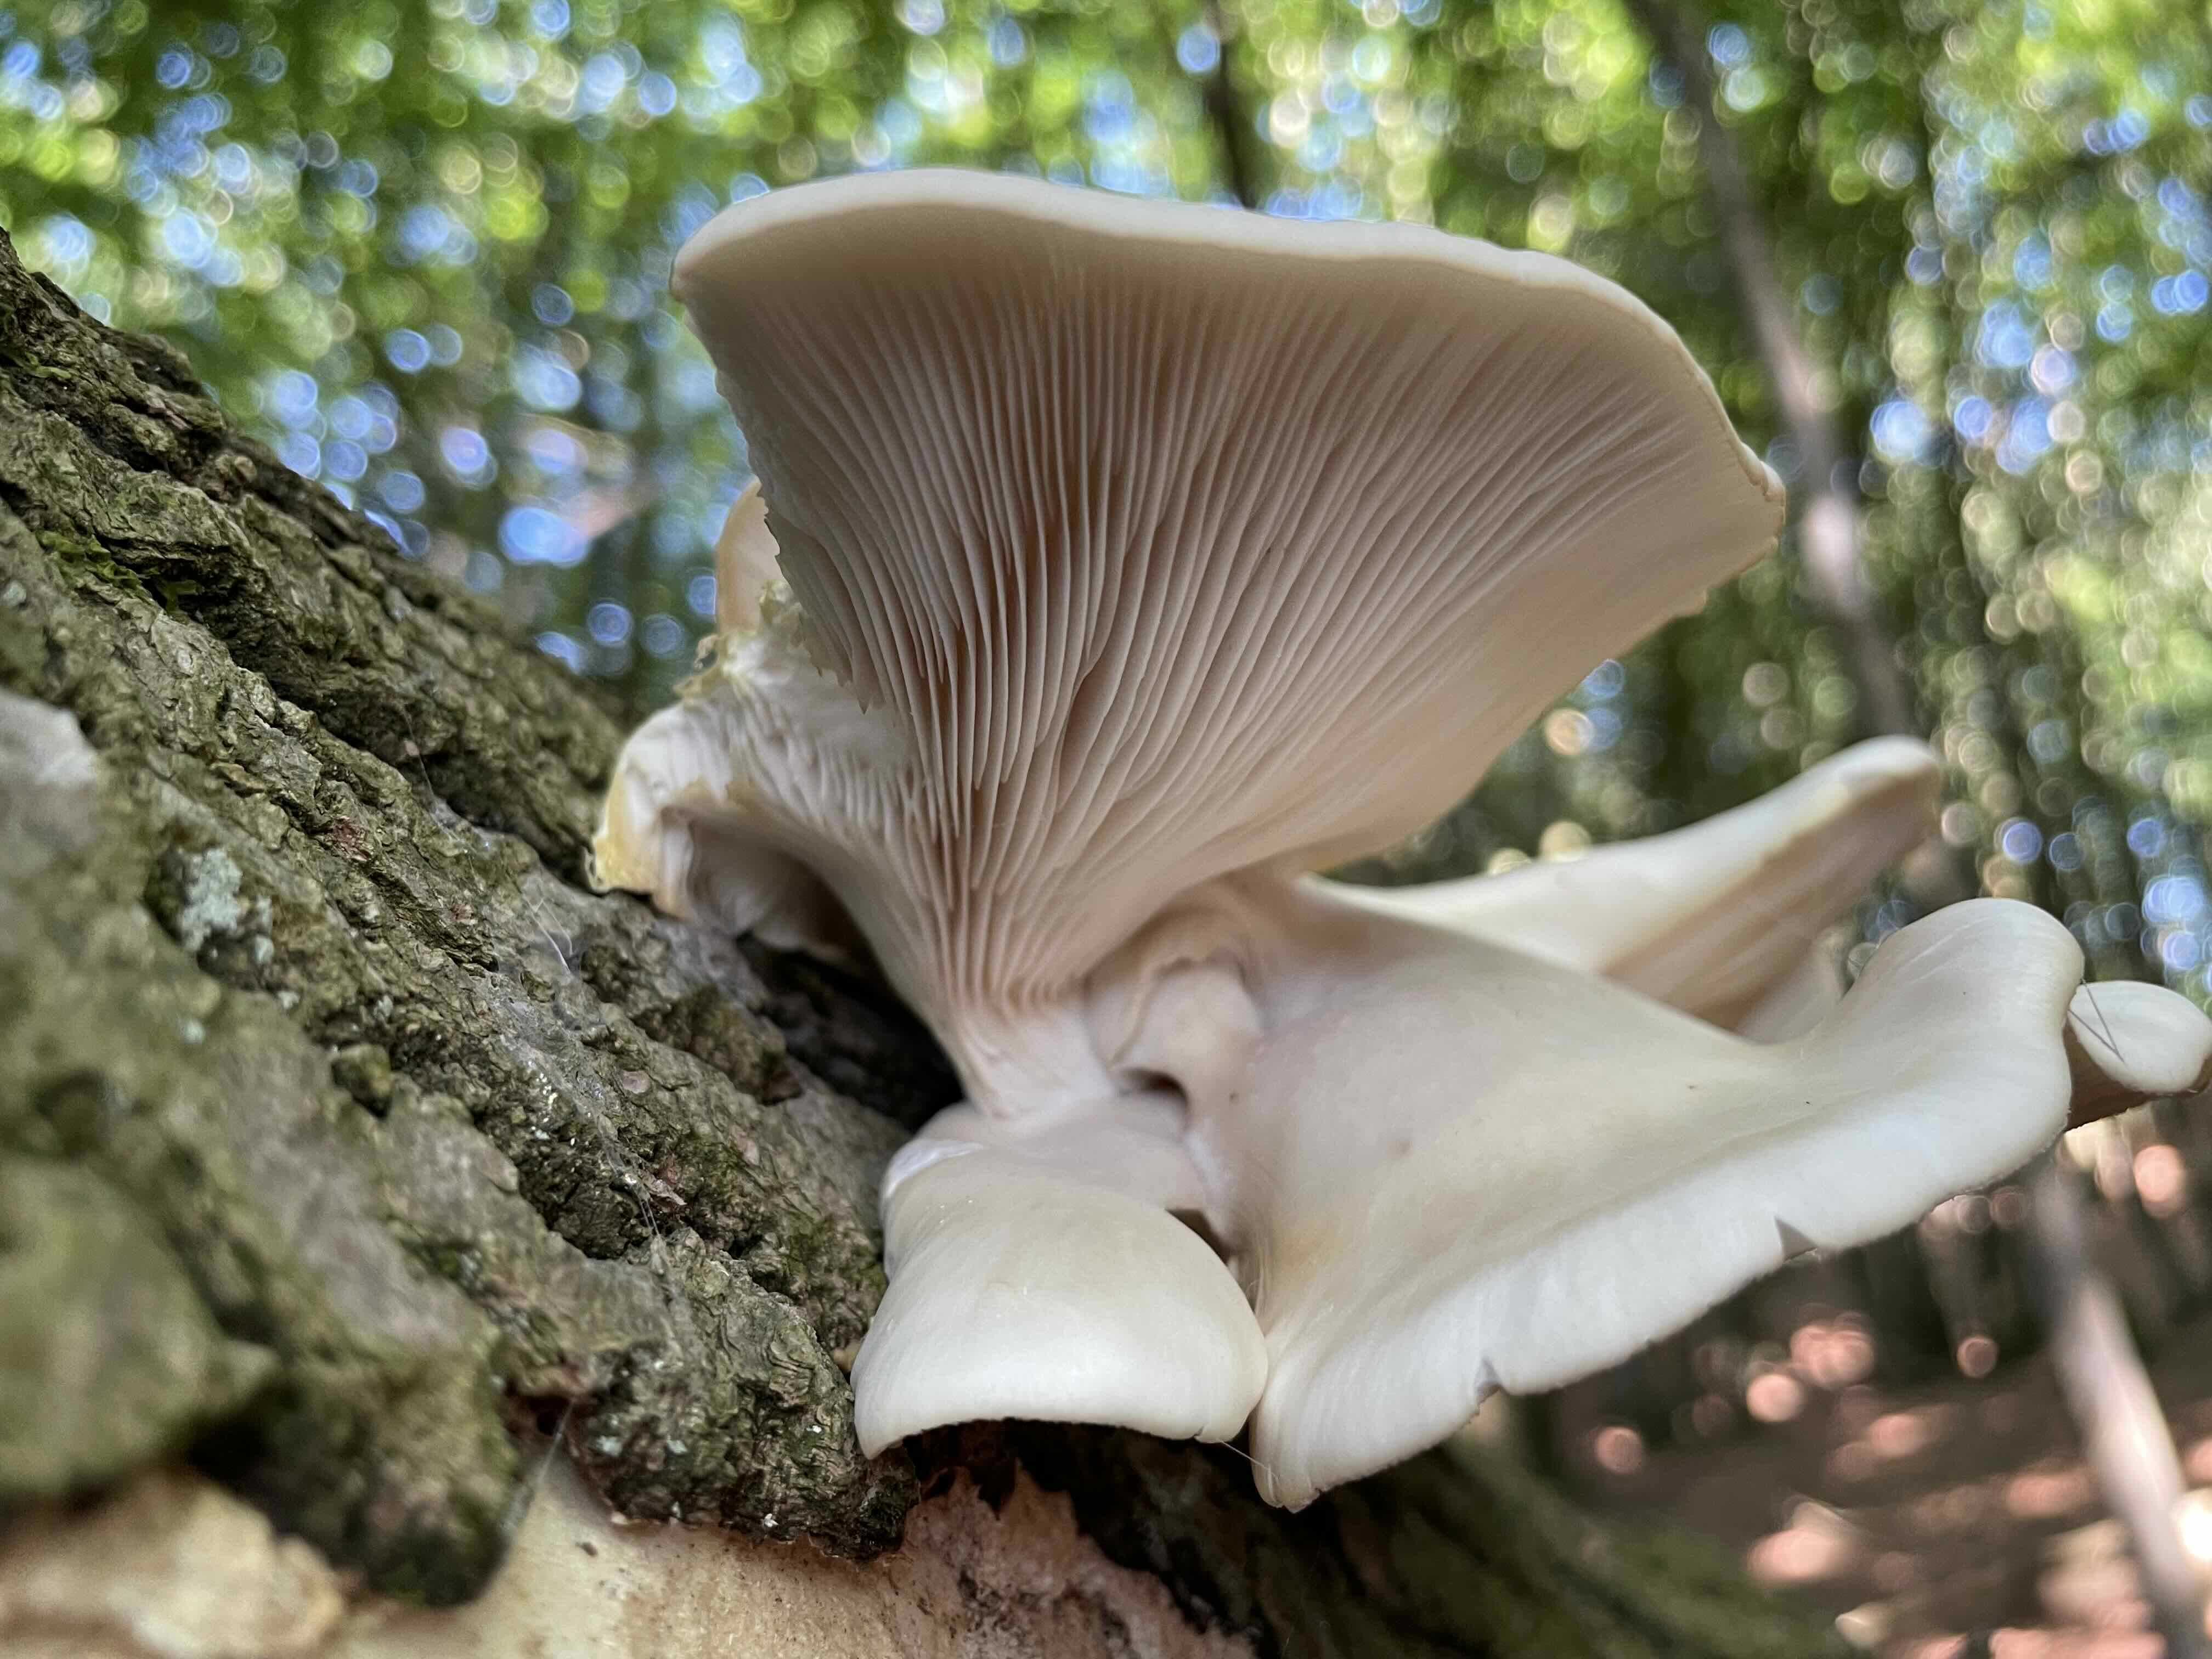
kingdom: Fungi
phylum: Basidiomycota
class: Agaricomycetes
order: Agaricales
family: Pleurotaceae
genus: Pleurotus
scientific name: Pleurotus pulmonarius
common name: sommer-østershat
